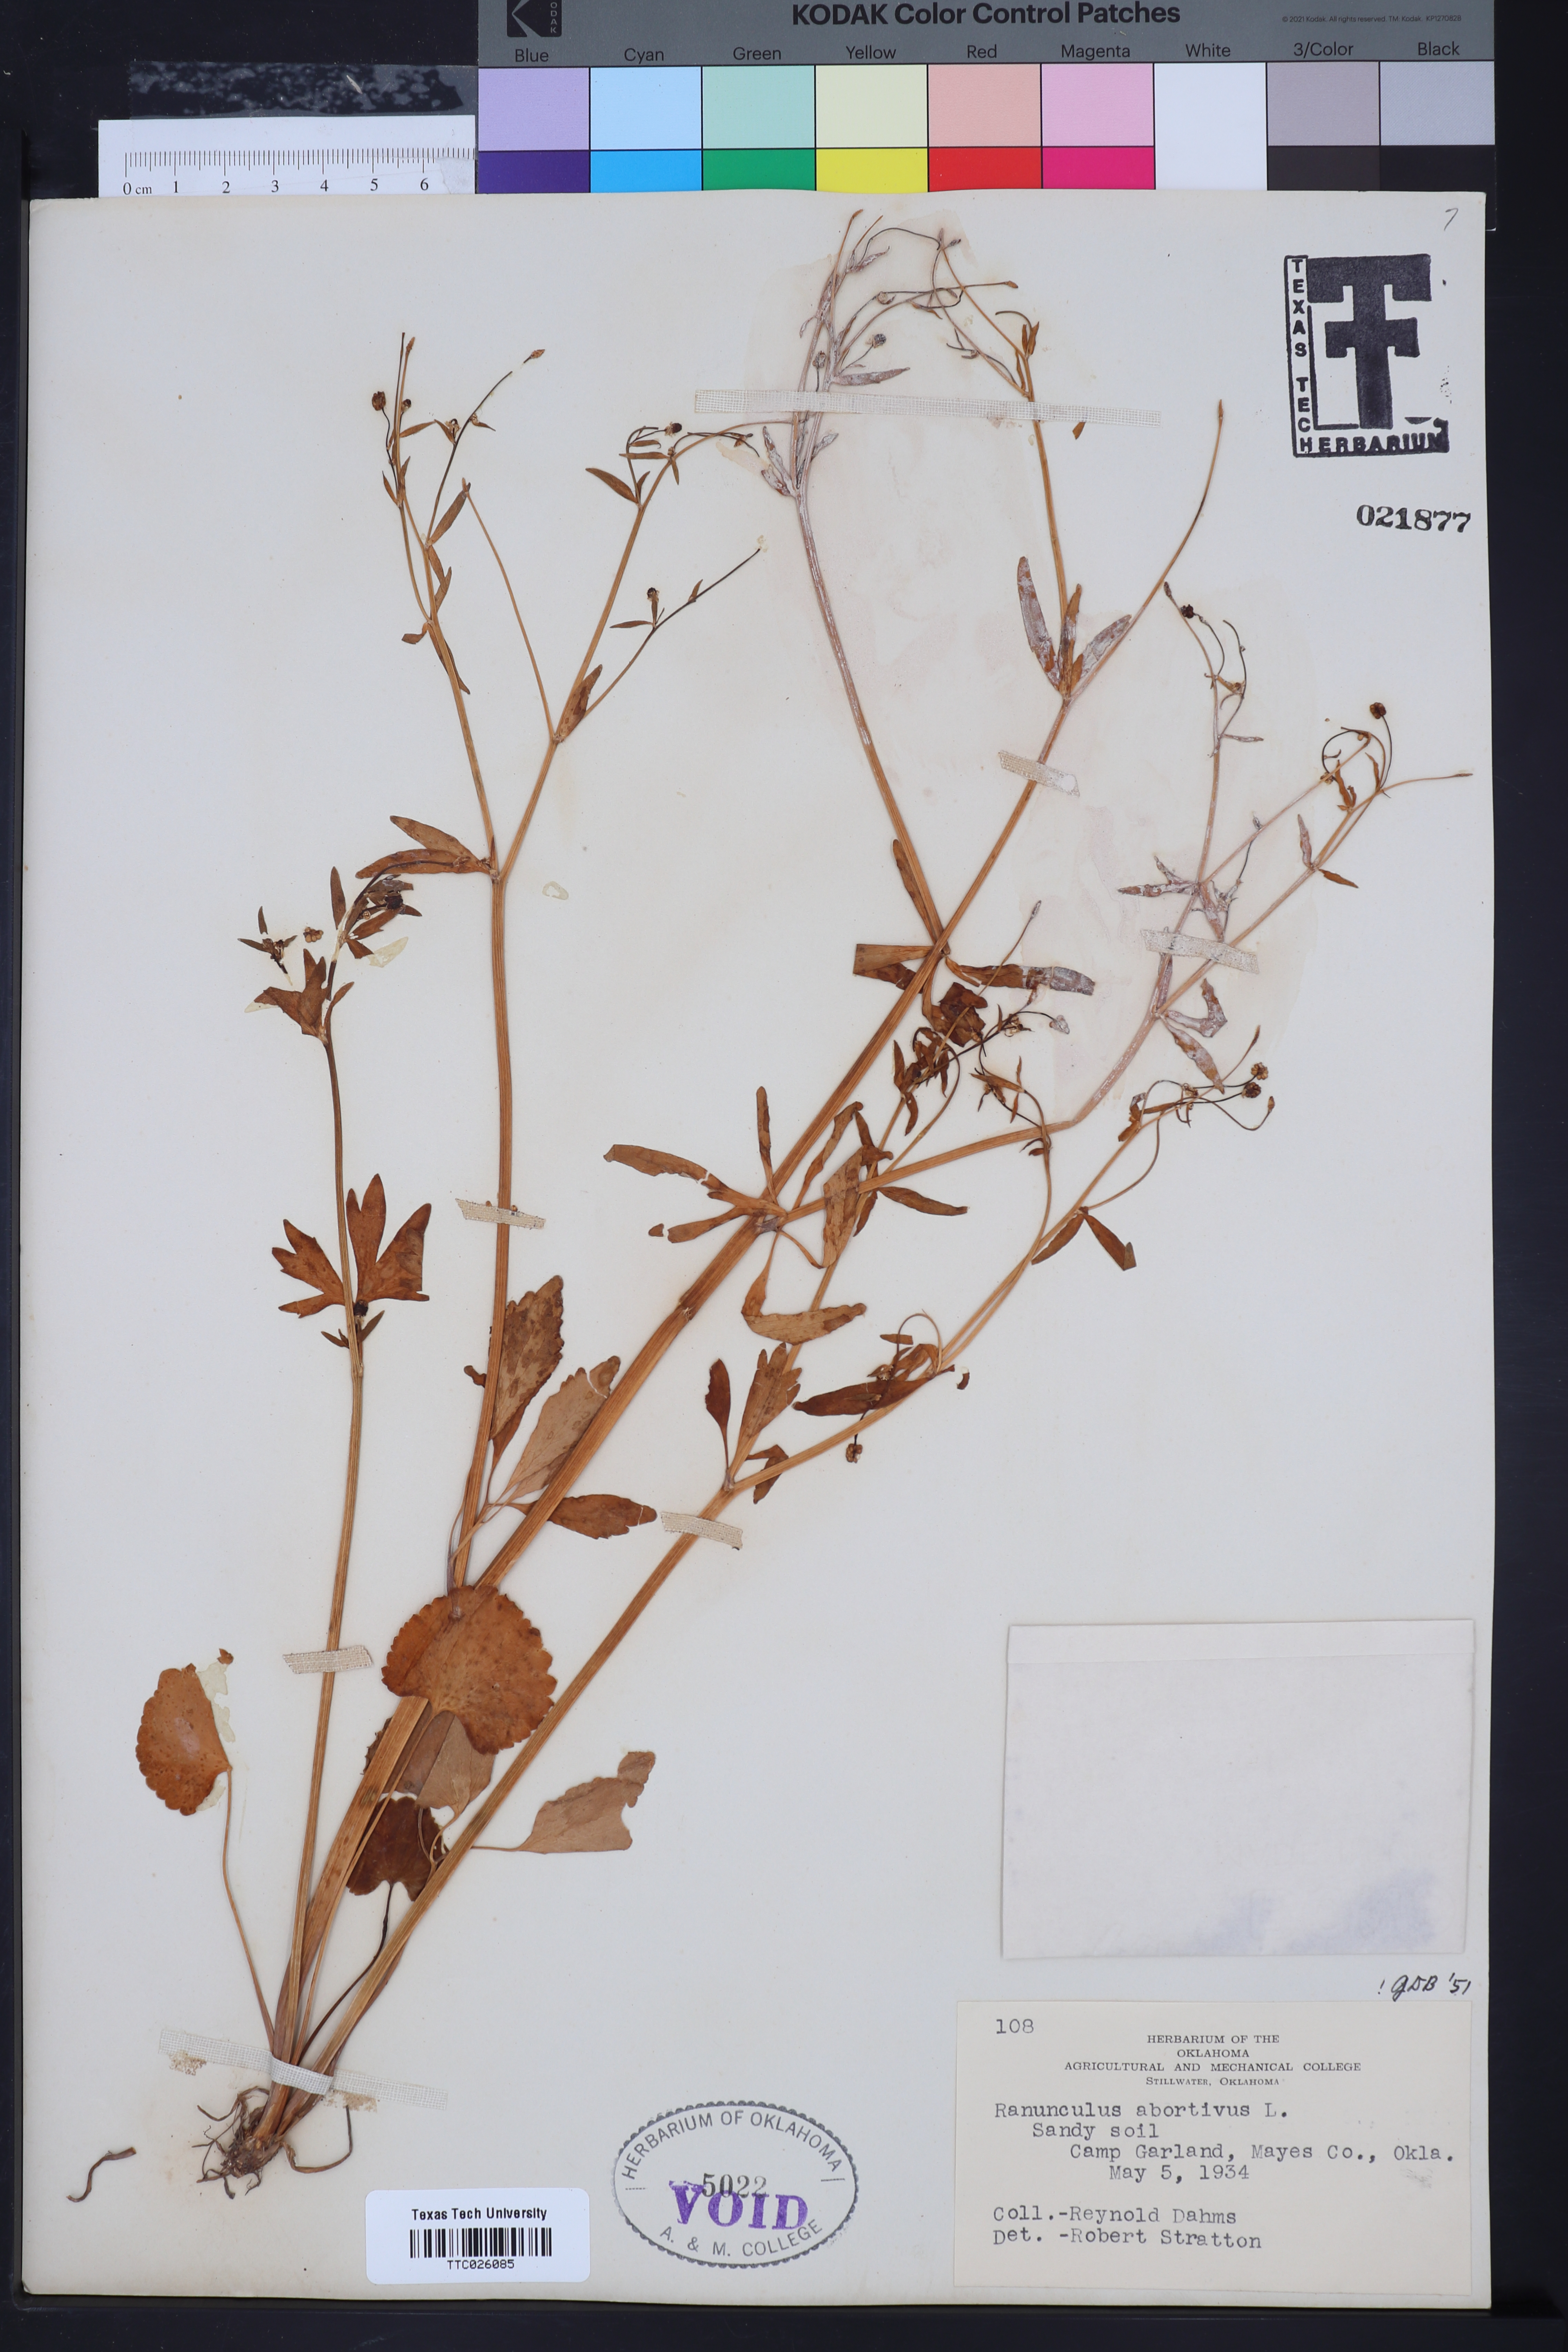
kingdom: Plantae
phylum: Tracheophyta
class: Magnoliopsida
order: Ranunculales
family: Ranunculaceae
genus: Ranunculus
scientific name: Ranunculus abortivus
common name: Early wood buttercup
